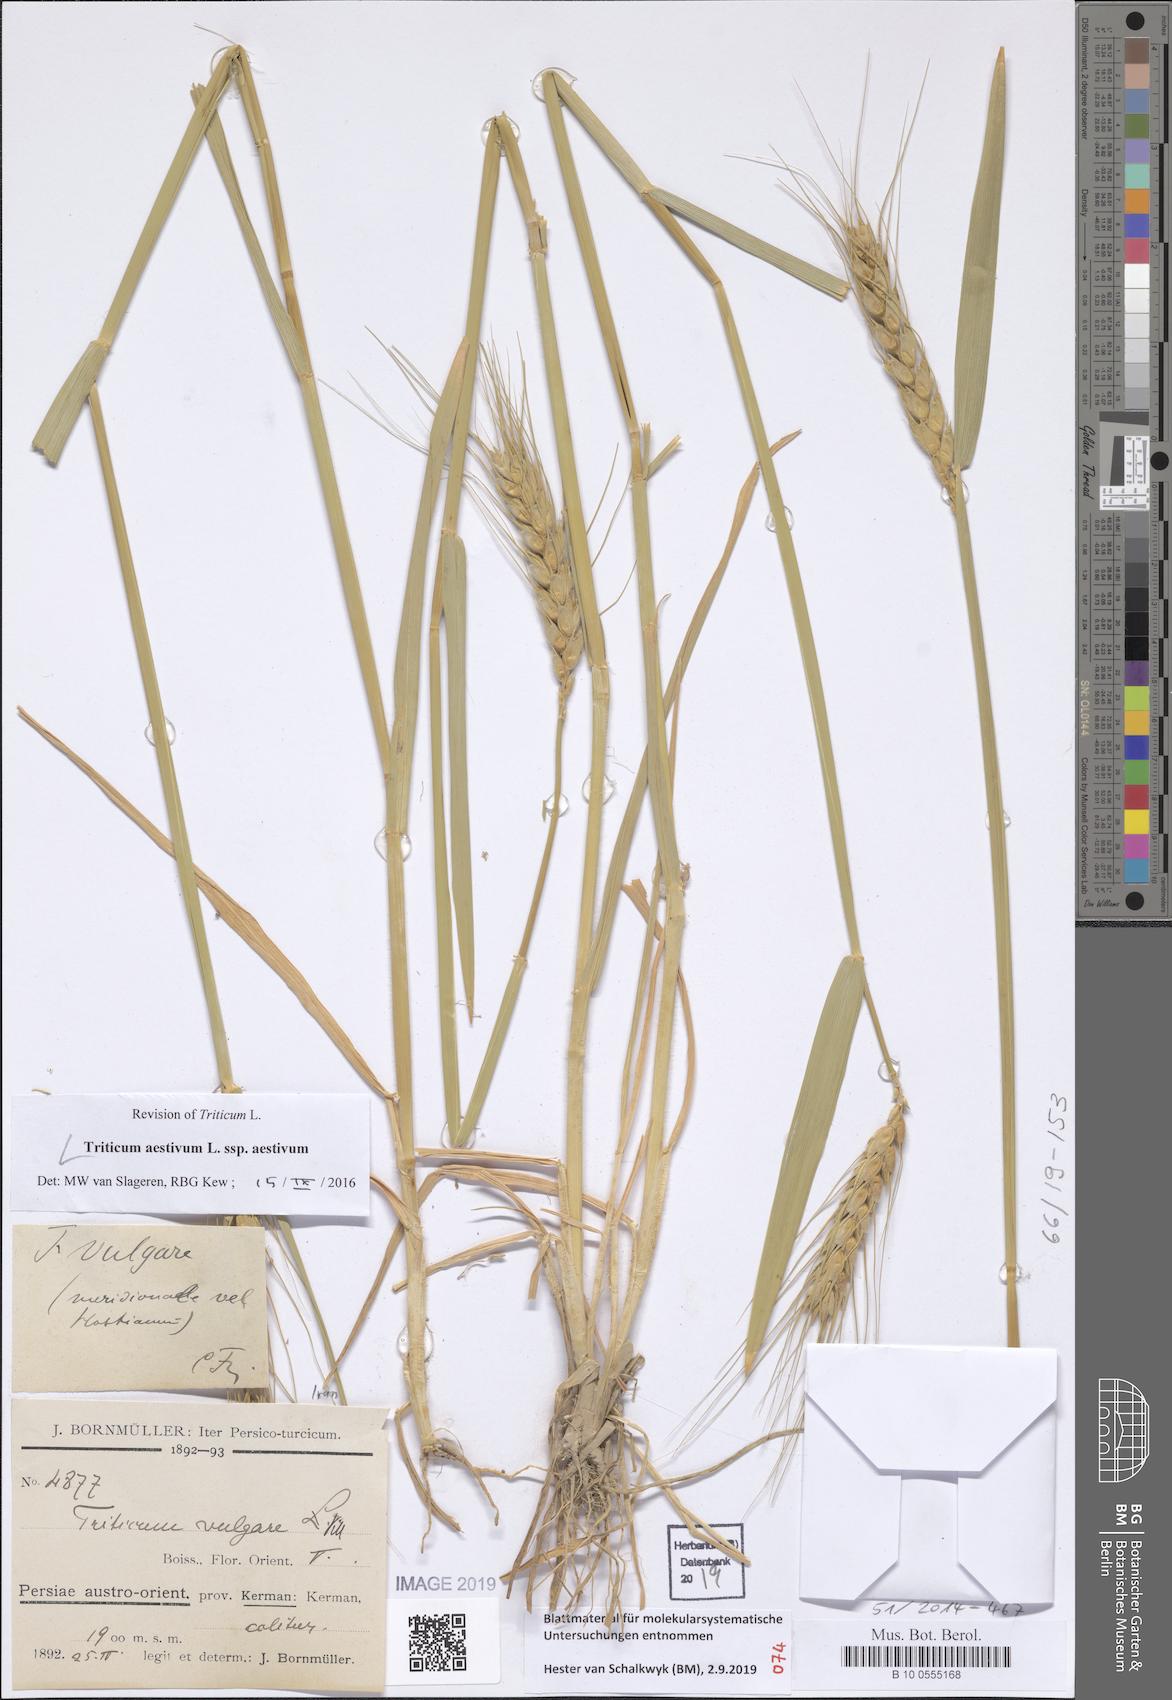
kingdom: Plantae
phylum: Tracheophyta
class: Liliopsida
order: Poales
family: Poaceae
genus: Triticum
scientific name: Triticum aestivum
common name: Common wheat
